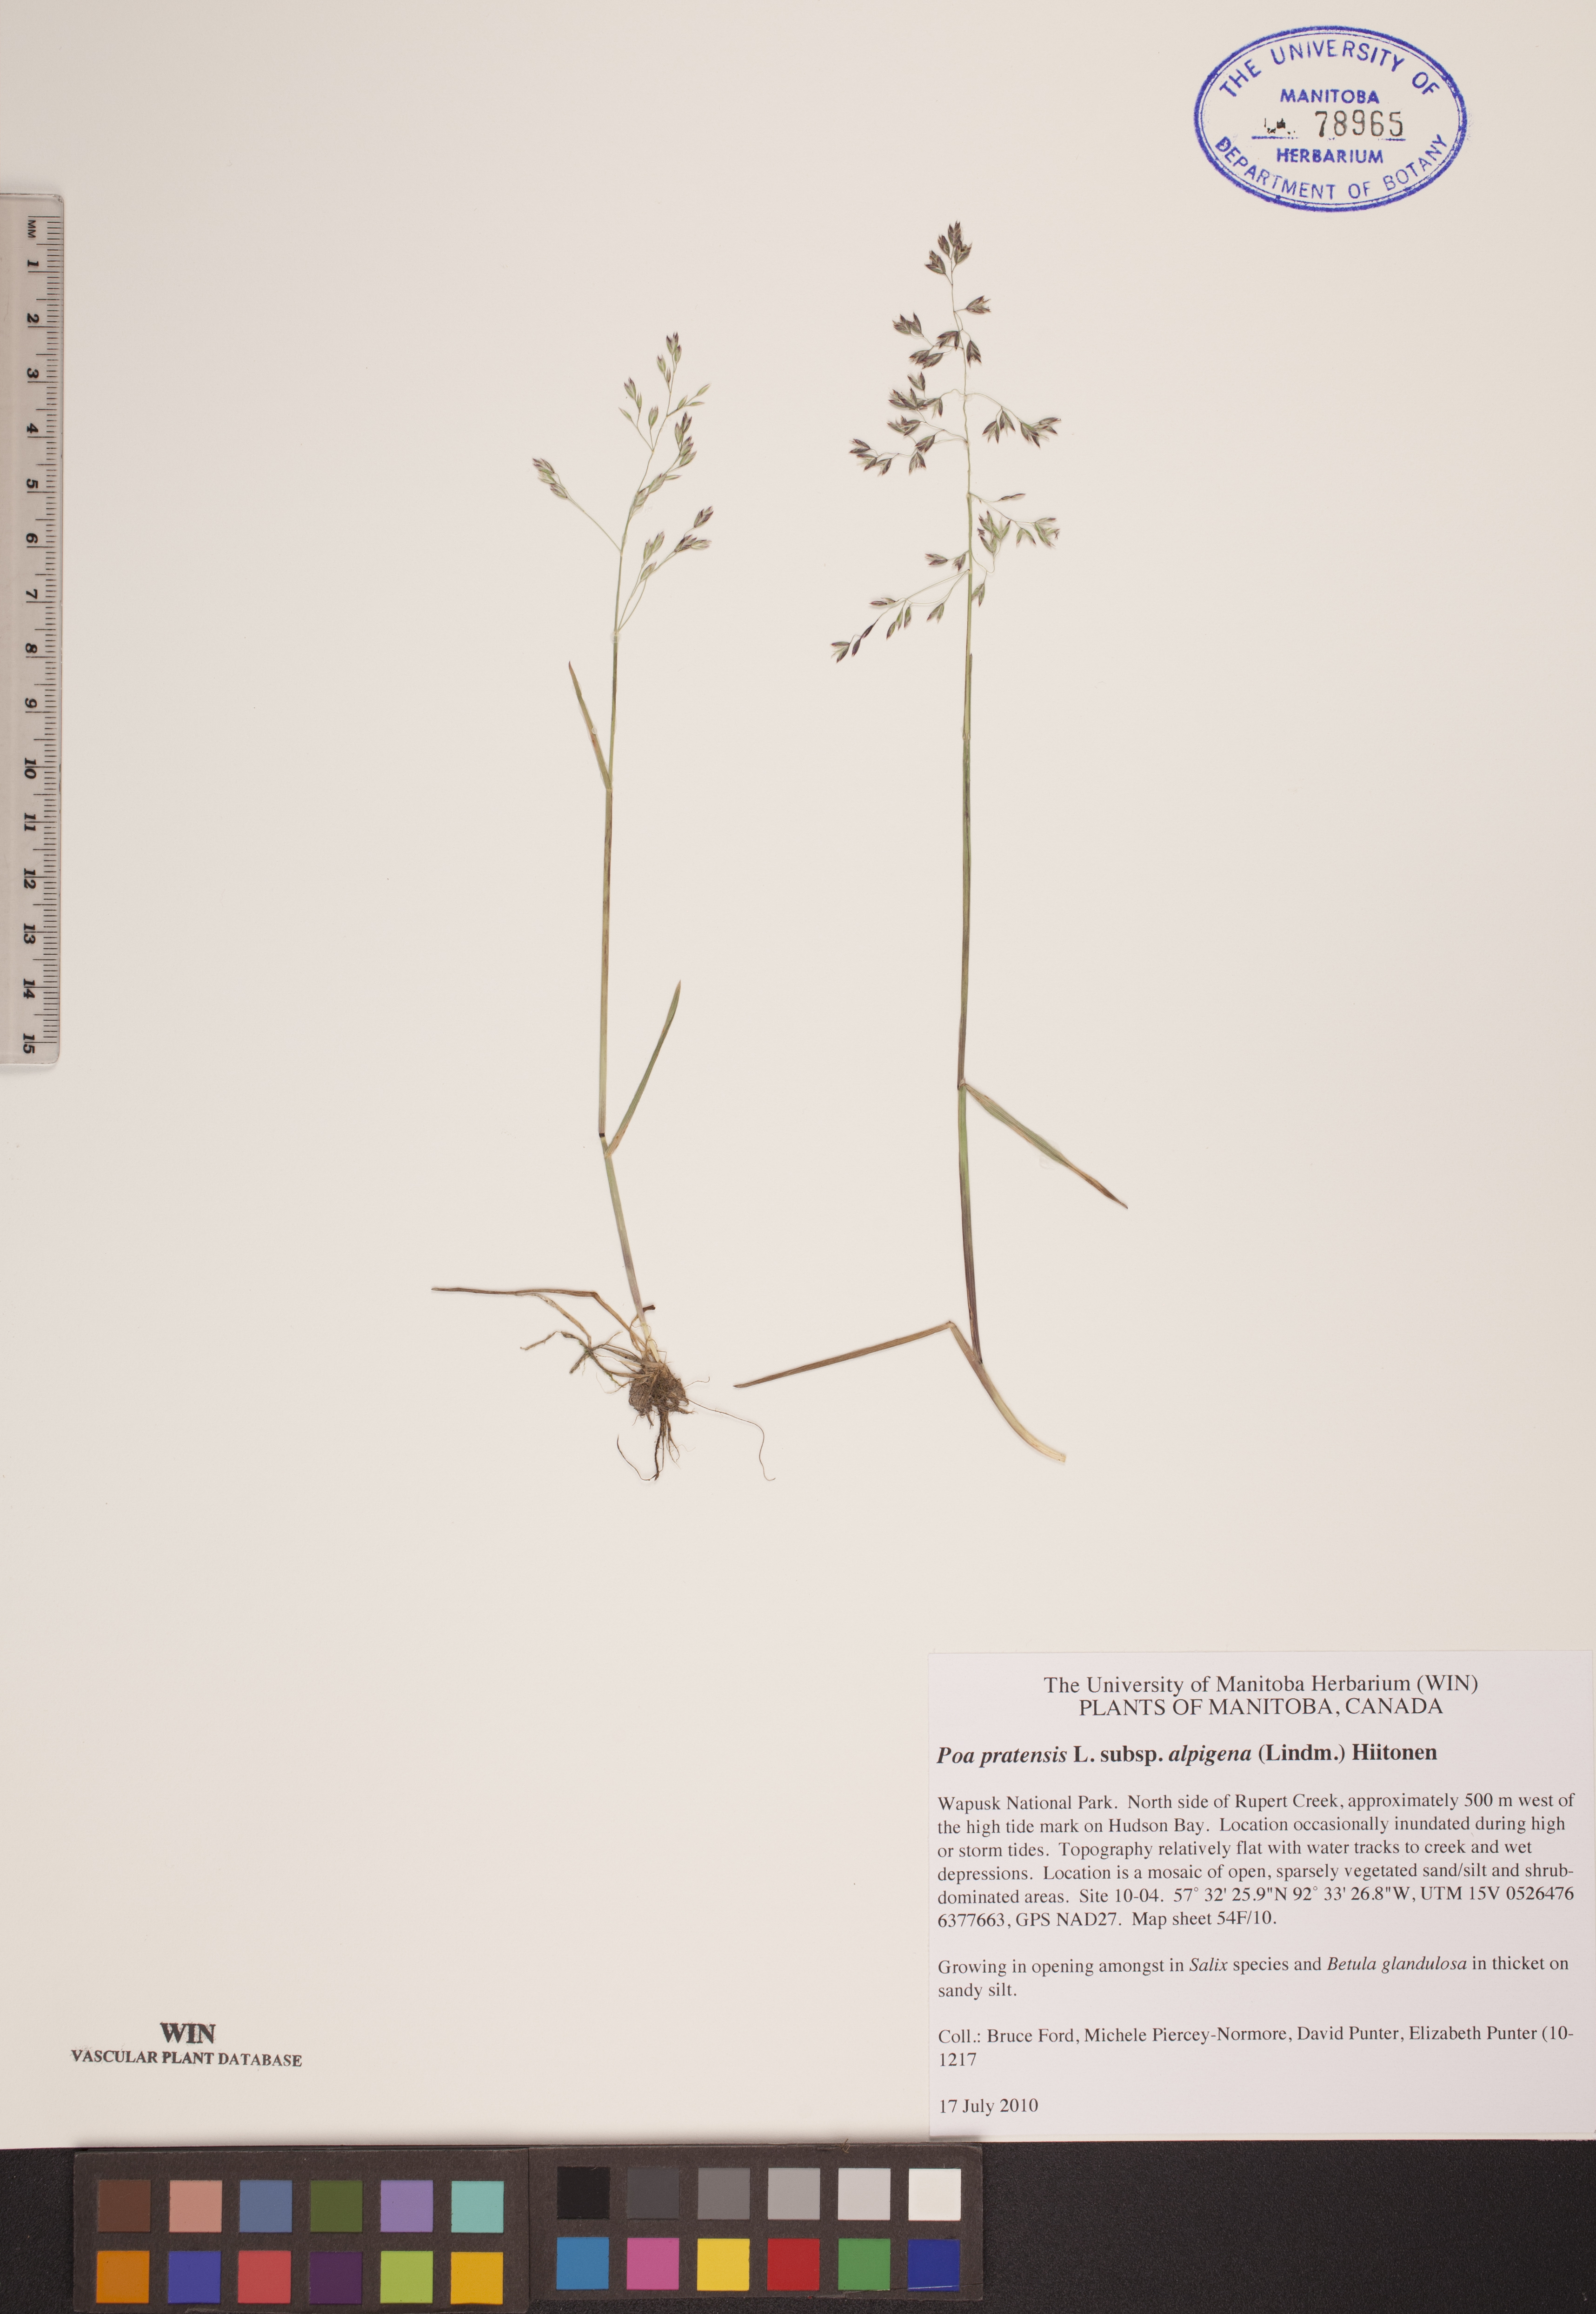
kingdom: Plantae
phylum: Tracheophyta
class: Liliopsida
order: Poales
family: Poaceae
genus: Poa
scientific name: Poa alpigena
